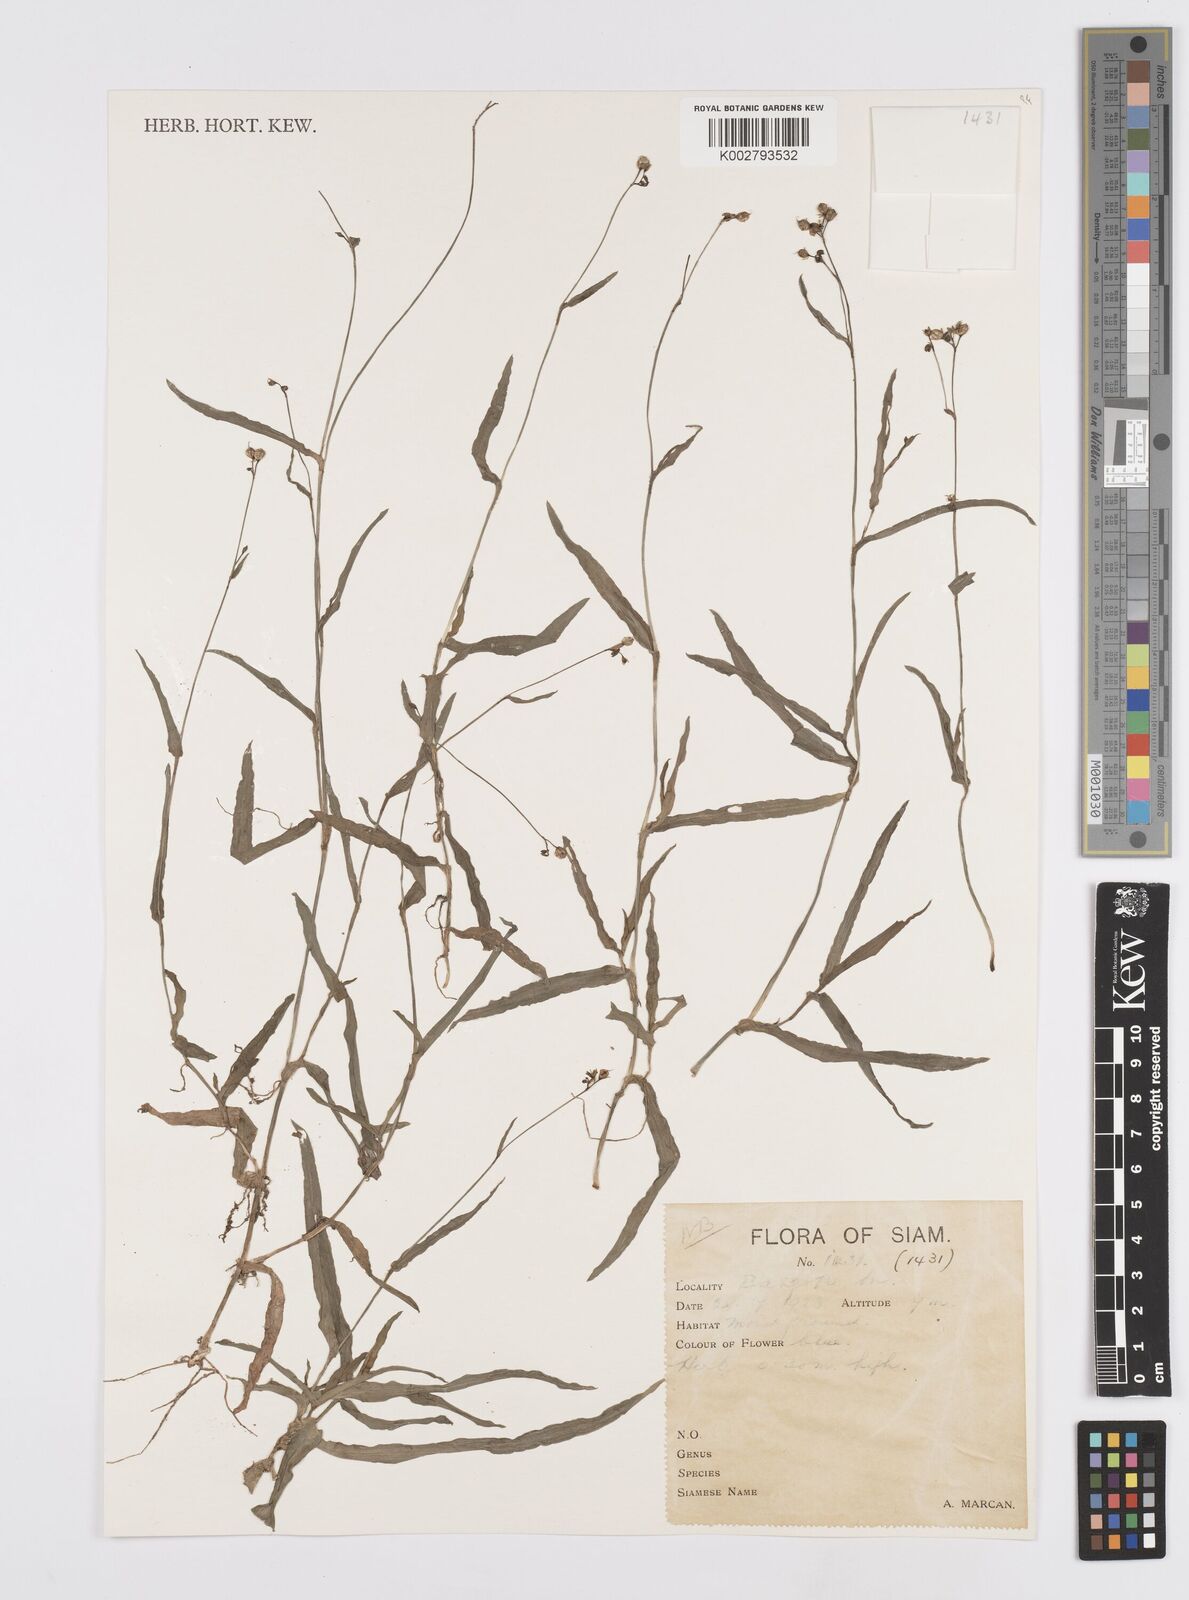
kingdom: Plantae
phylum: Tracheophyta
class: Liliopsida
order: Commelinales
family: Commelinaceae
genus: Murdannia
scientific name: Murdannia
